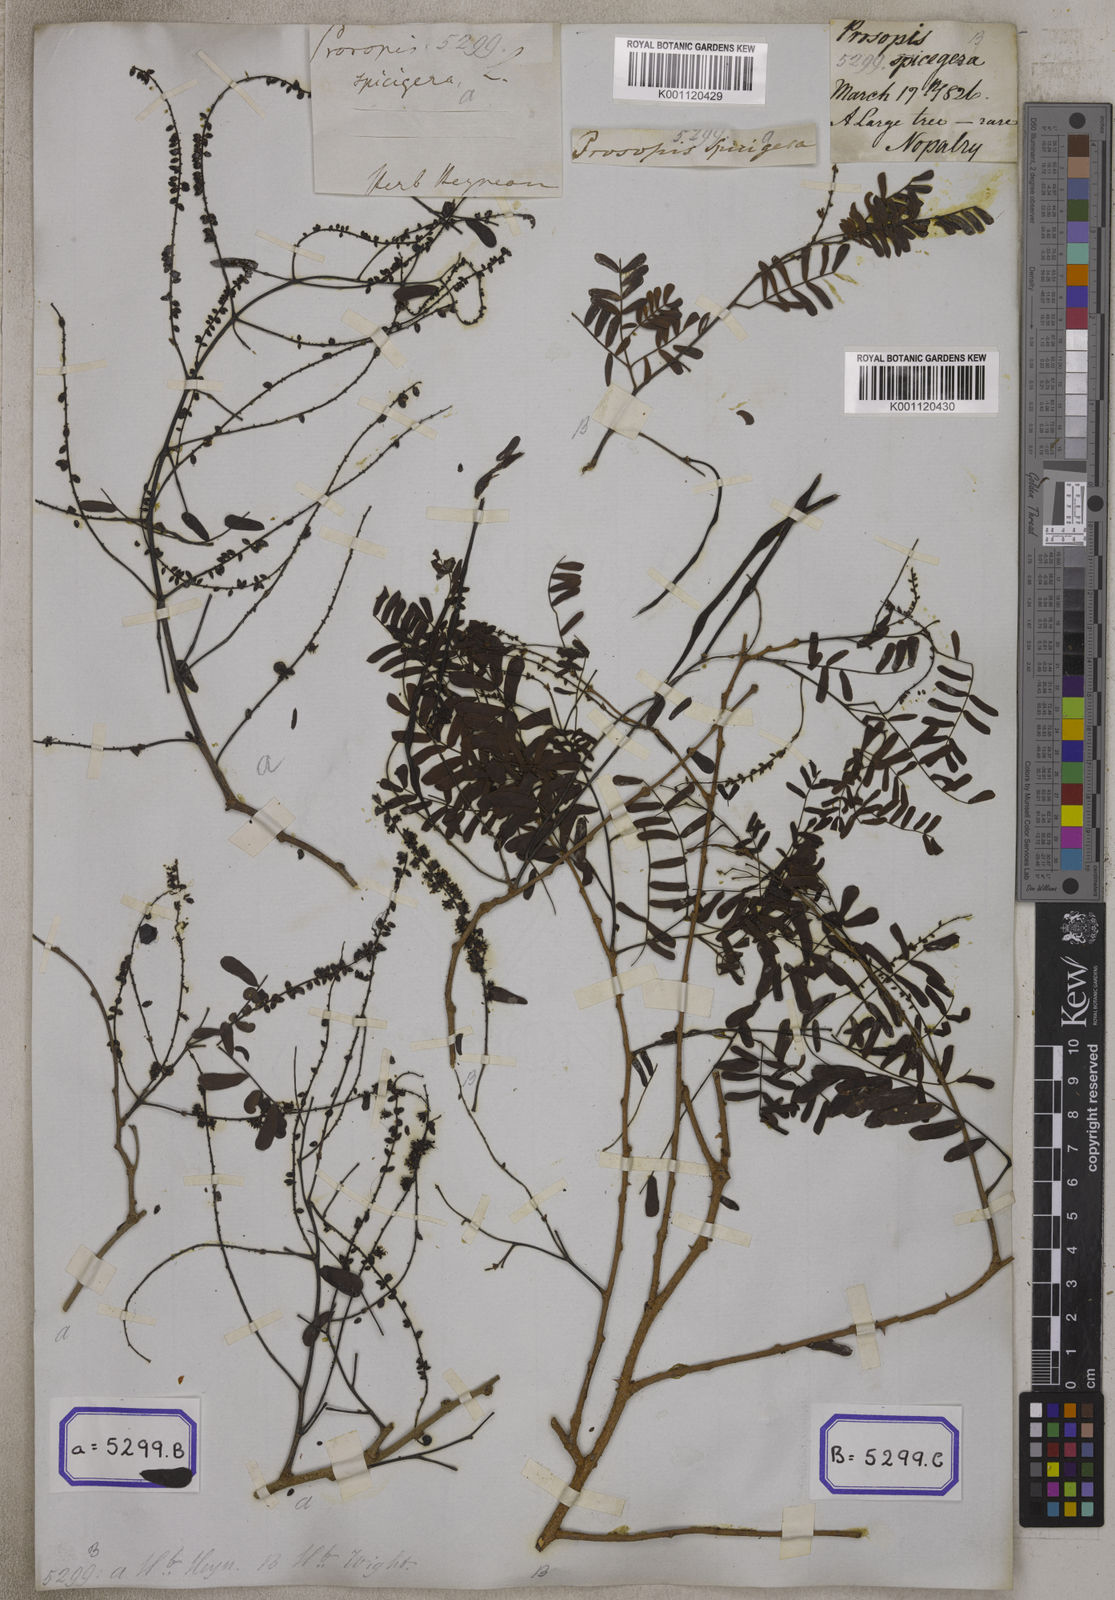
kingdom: Plantae
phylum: Tracheophyta
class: Magnoliopsida
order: Fabales
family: Fabaceae
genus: Prosopis
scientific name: Prosopis cineraria
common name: Jandi
